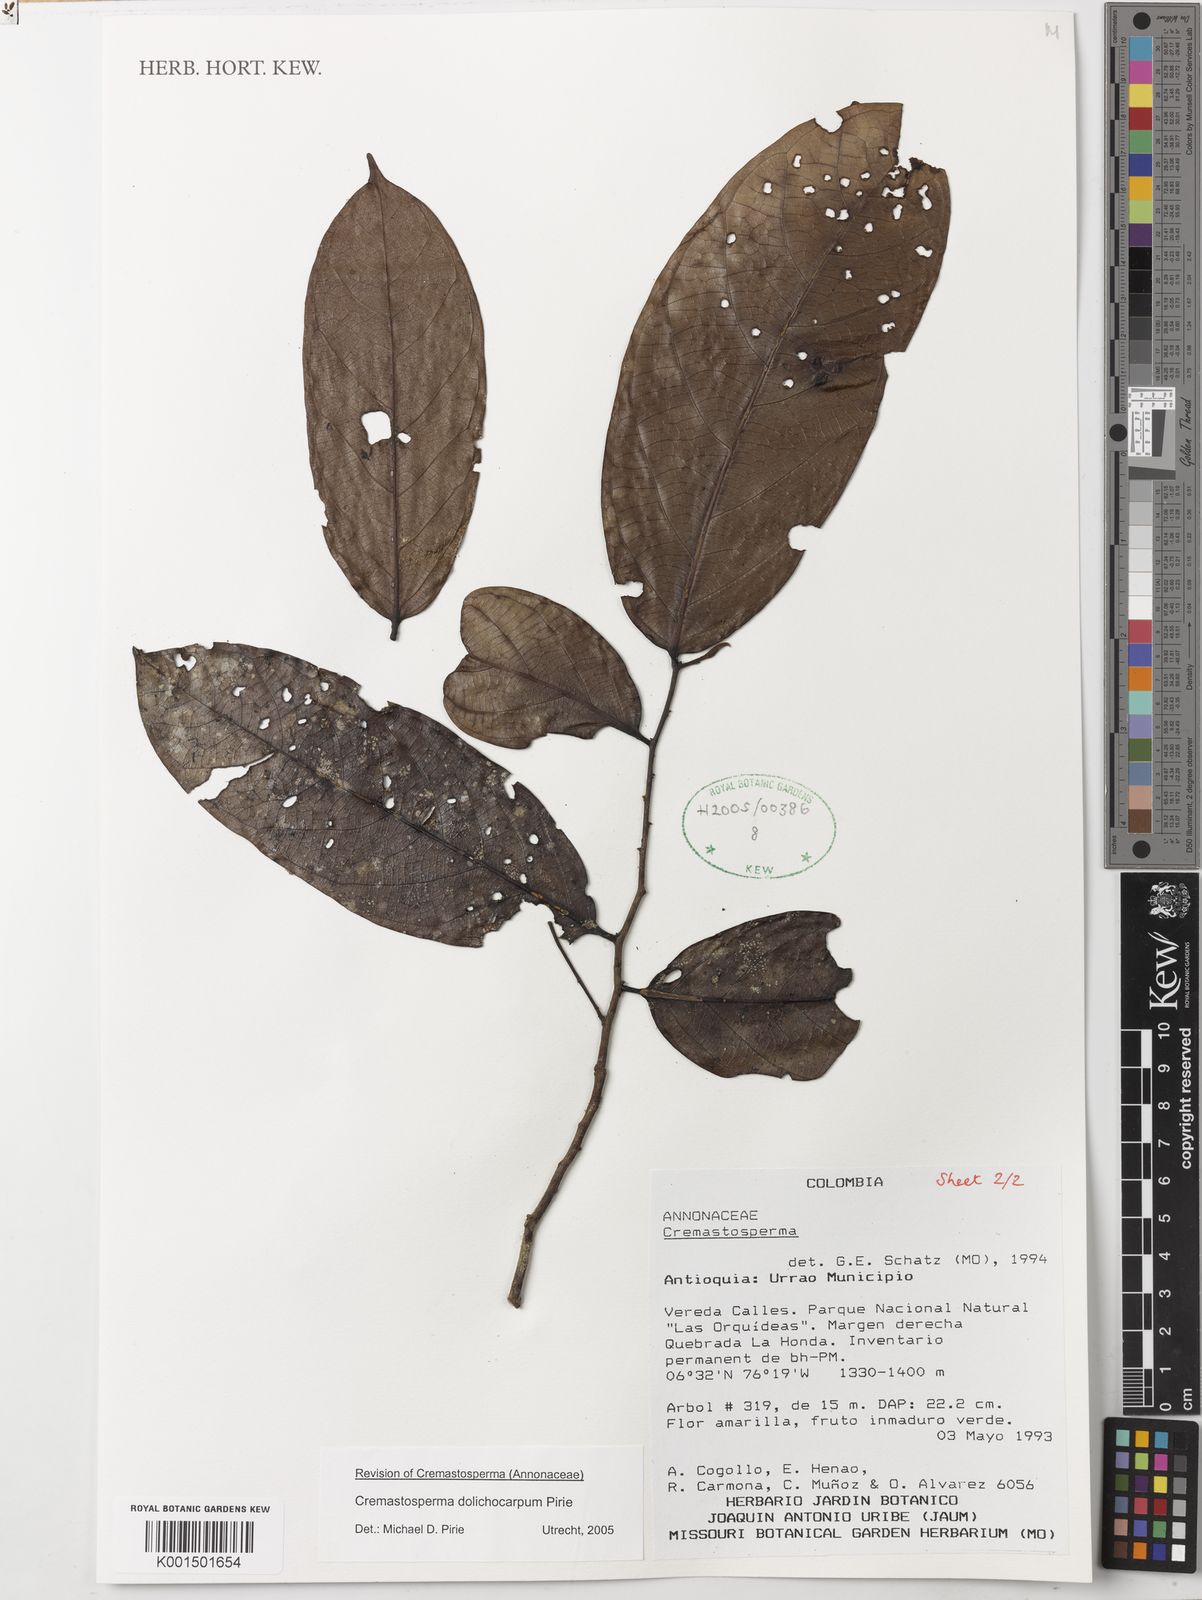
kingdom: Plantae
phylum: Tracheophyta
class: Magnoliopsida
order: Magnoliales
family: Annonaceae
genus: Cremastosperma
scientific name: Cremastosperma dolichocarpum
